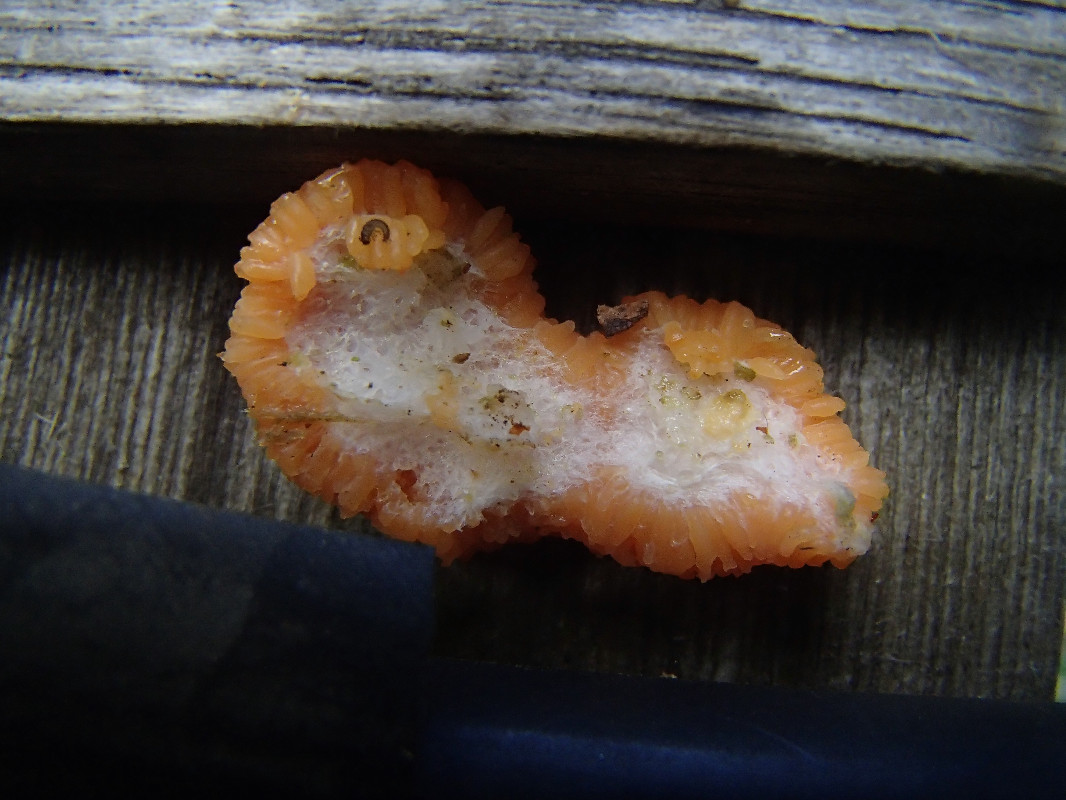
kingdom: Protozoa
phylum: Mycetozoa
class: Myxomycetes
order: Cribrariales
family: Tubiferaceae
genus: Tubifera
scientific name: Tubifera ferruginosa
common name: kanel-støvrør
